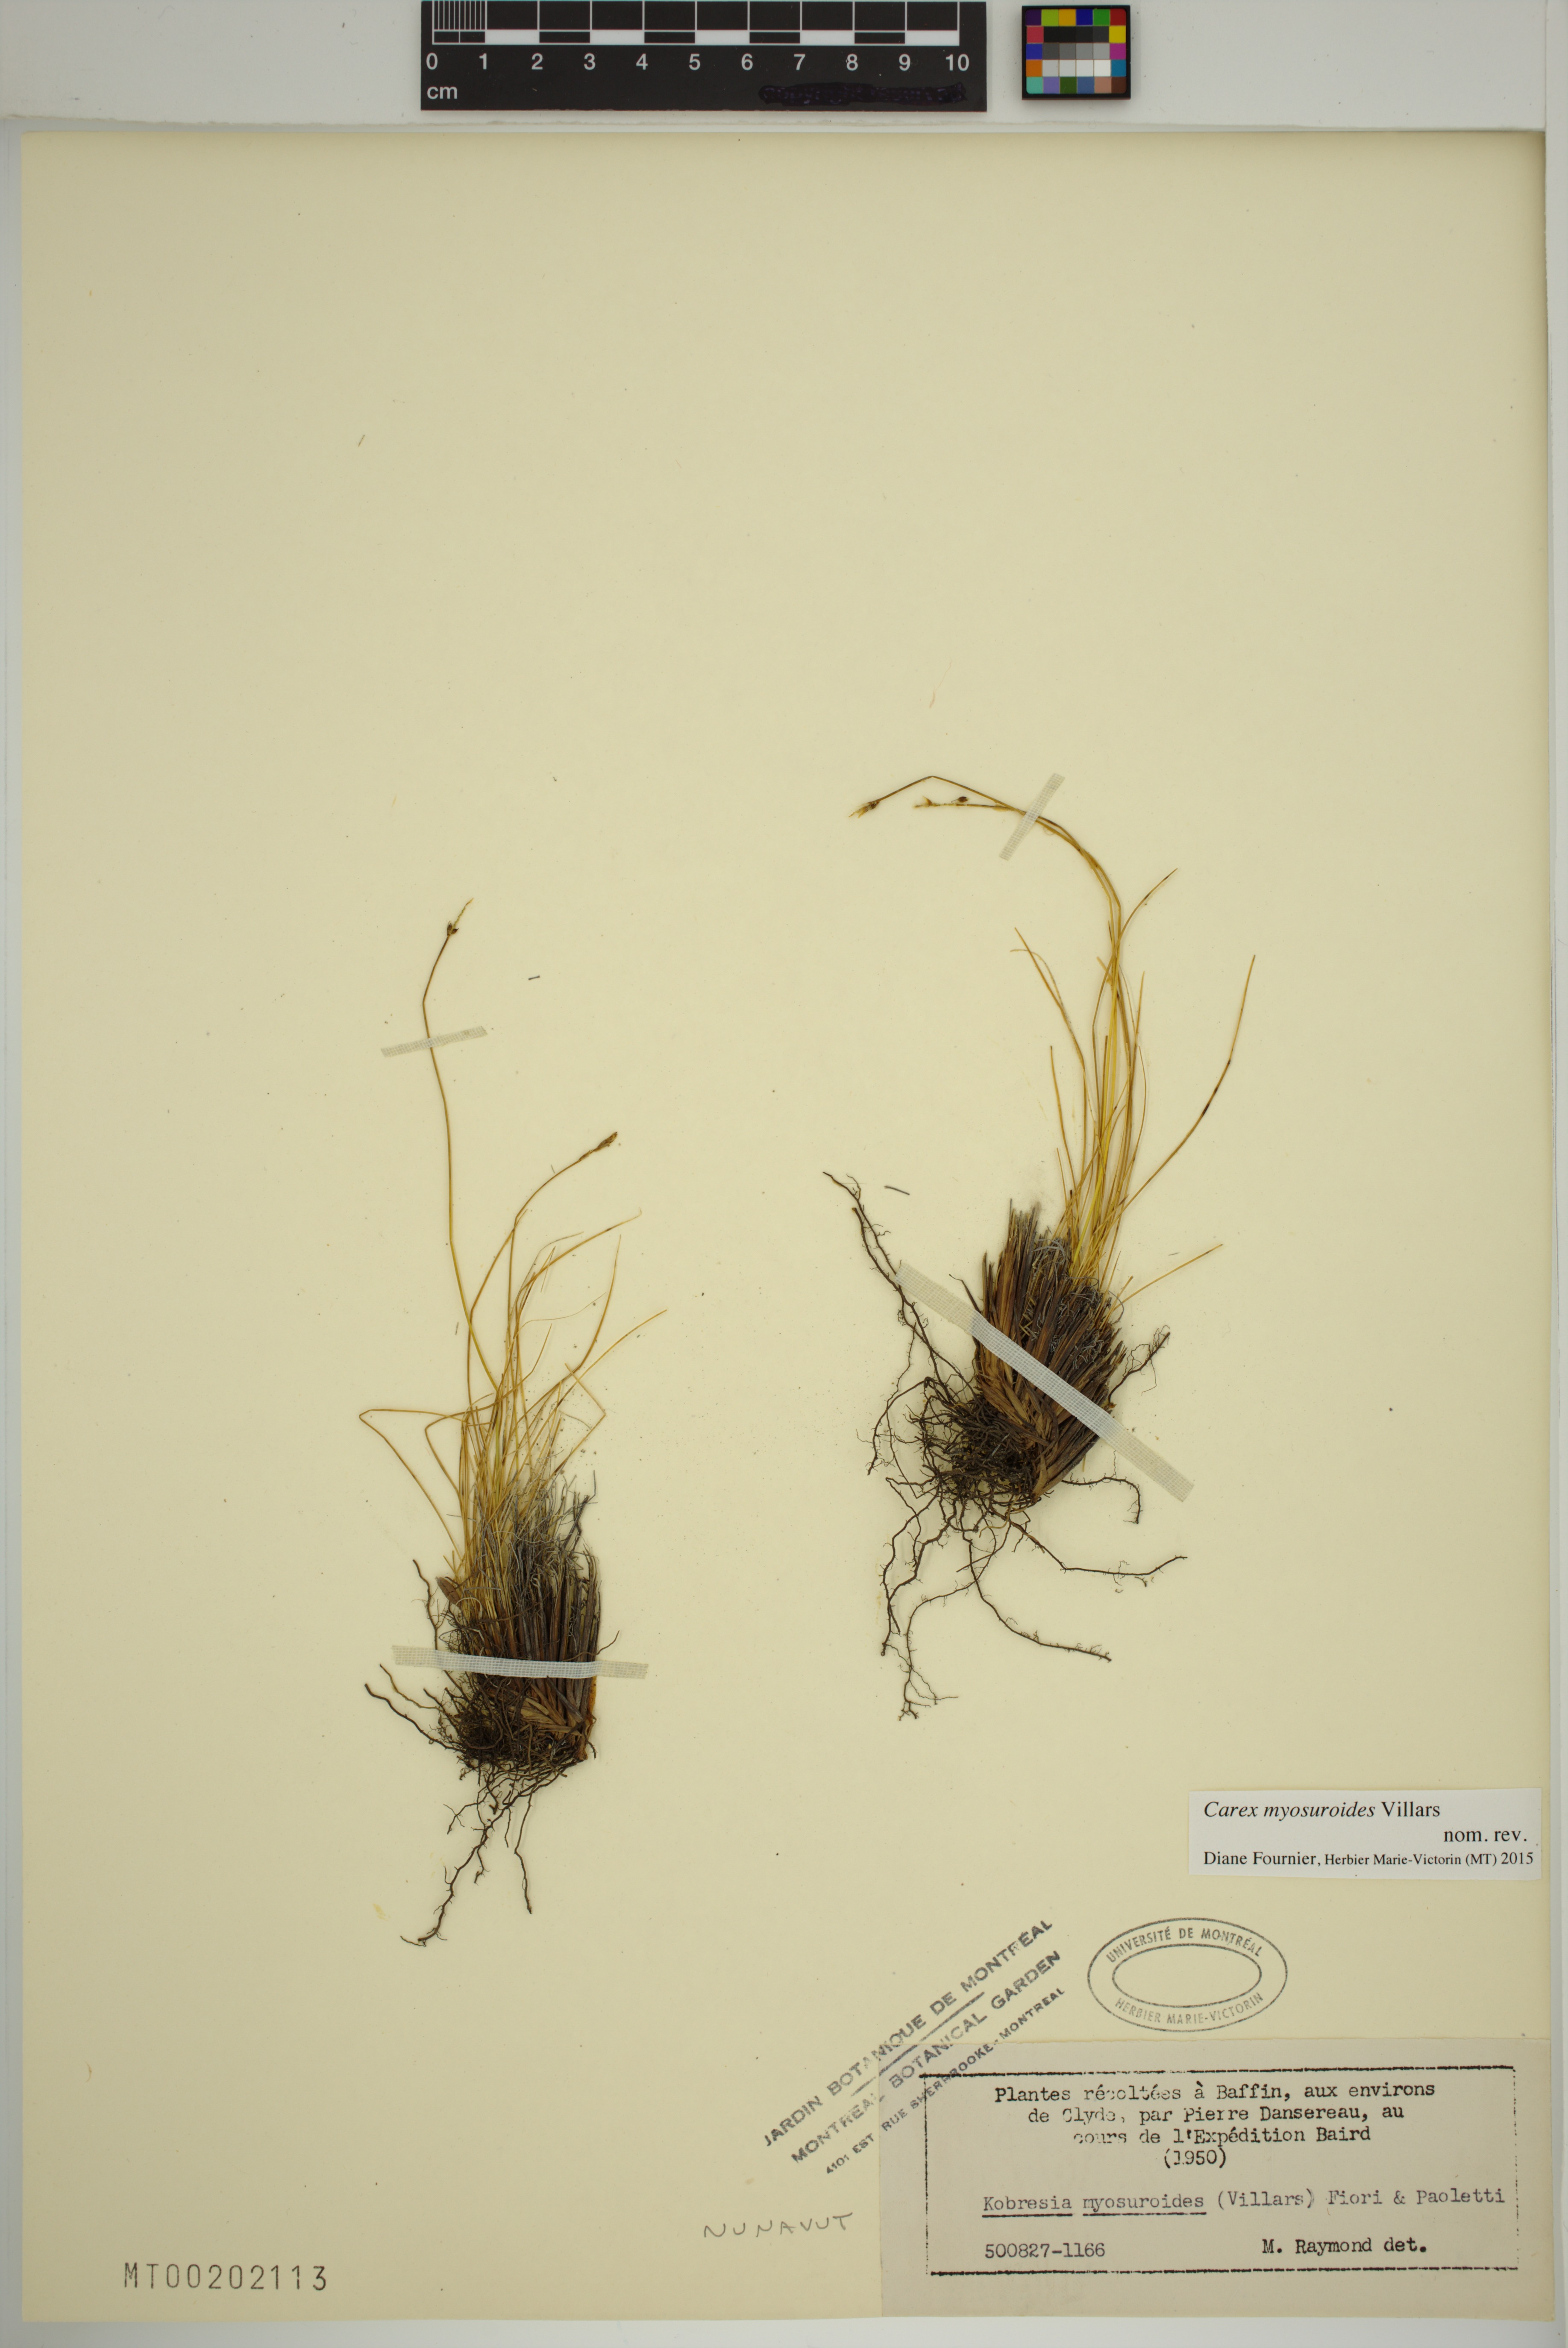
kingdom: Plantae
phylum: Tracheophyta
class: Liliopsida
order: Poales
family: Cyperaceae
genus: Carex
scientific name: Carex myosuroides
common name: Bellard's bog sedge
